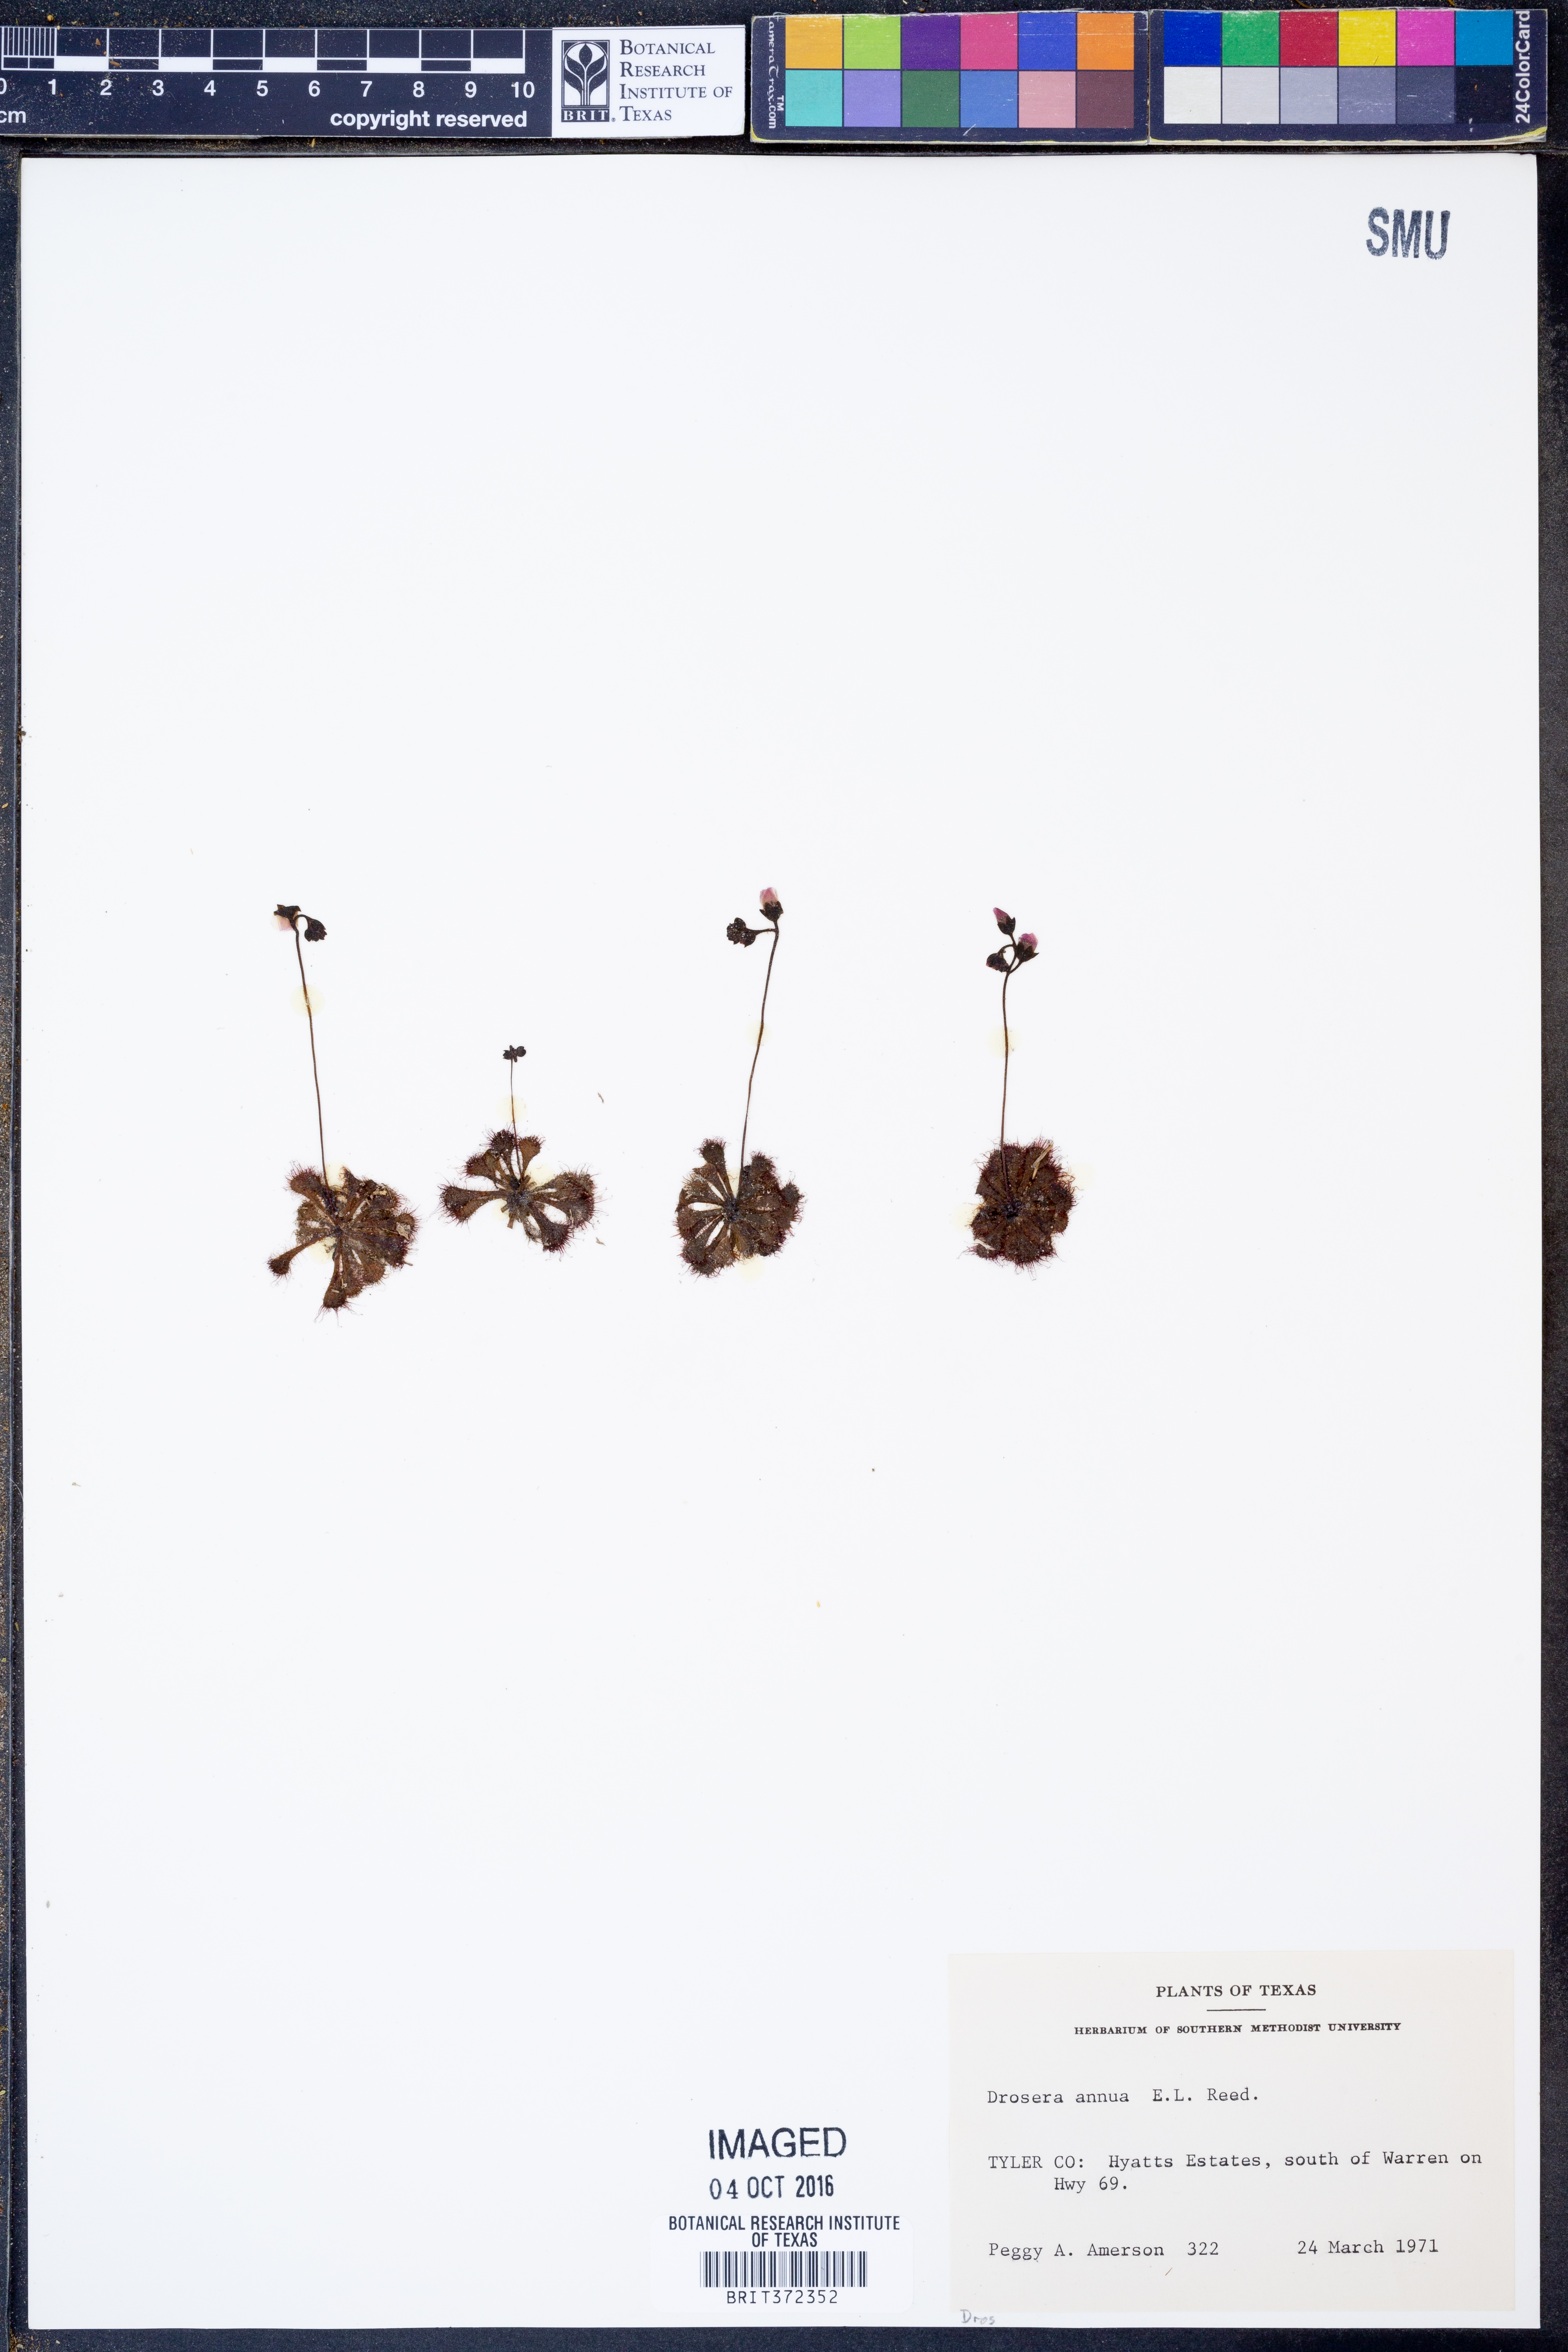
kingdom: Plantae
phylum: Tracheophyta
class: Magnoliopsida
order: Caryophyllales
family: Droseraceae
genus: Drosera
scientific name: Drosera brevifolia
